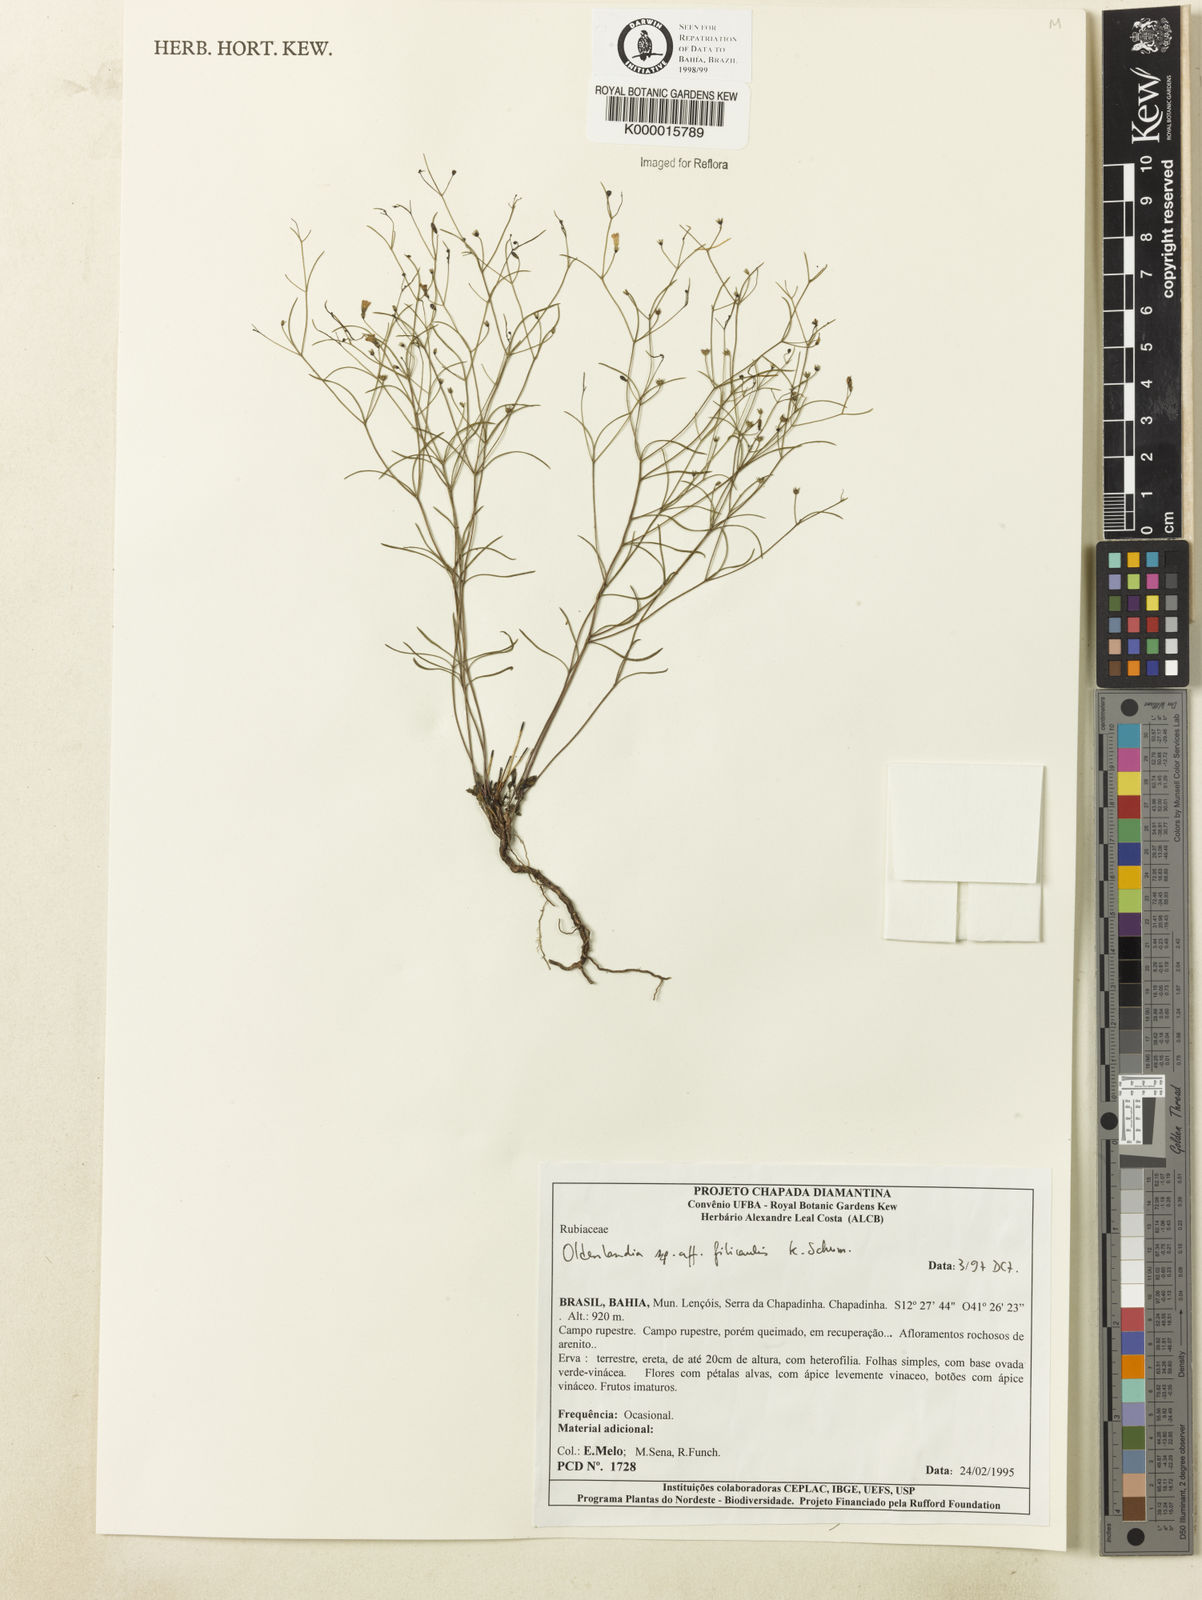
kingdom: Plantae
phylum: Tracheophyta
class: Magnoliopsida
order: Gentianales
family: Rubiaceae
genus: Oldenlandia
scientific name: Oldenlandia filicaulis
